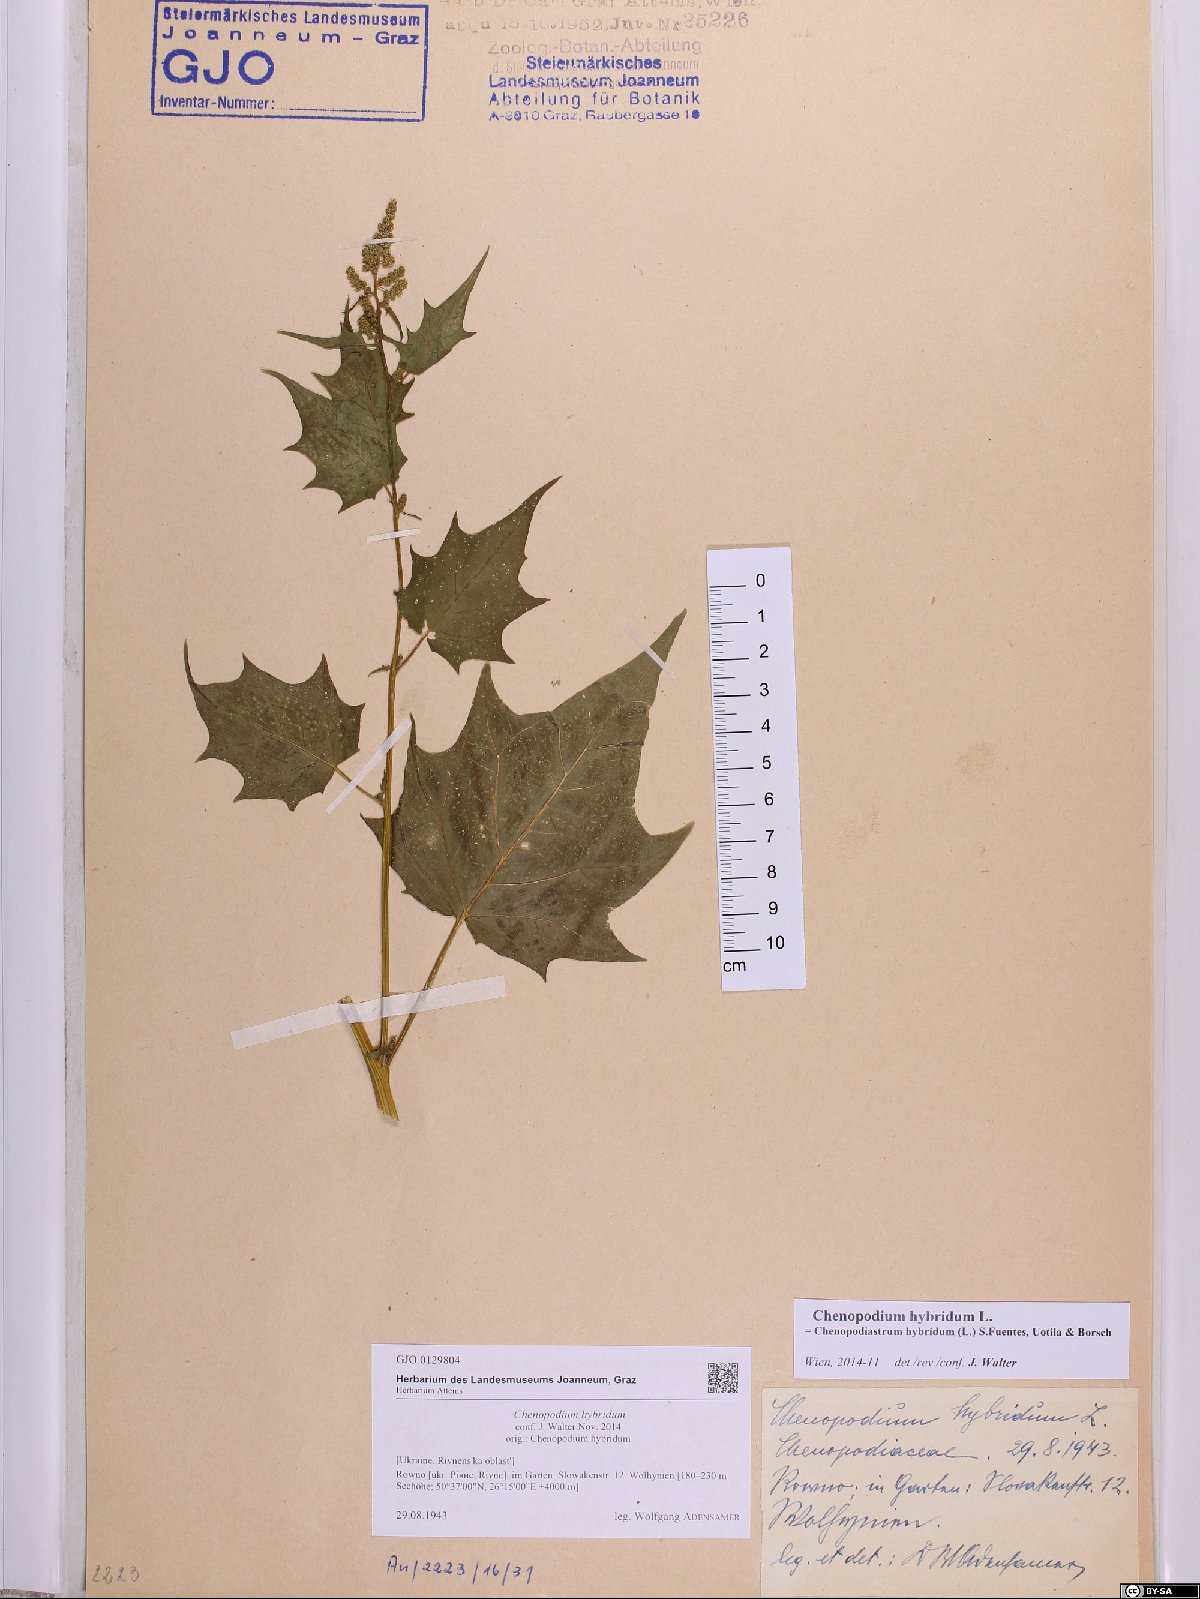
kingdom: Plantae
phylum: Tracheophyta
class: Magnoliopsida
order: Caryophyllales
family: Amaranthaceae
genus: Chenopodiastrum
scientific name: Chenopodiastrum hybridum
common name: Mapleleaf goosefoot
